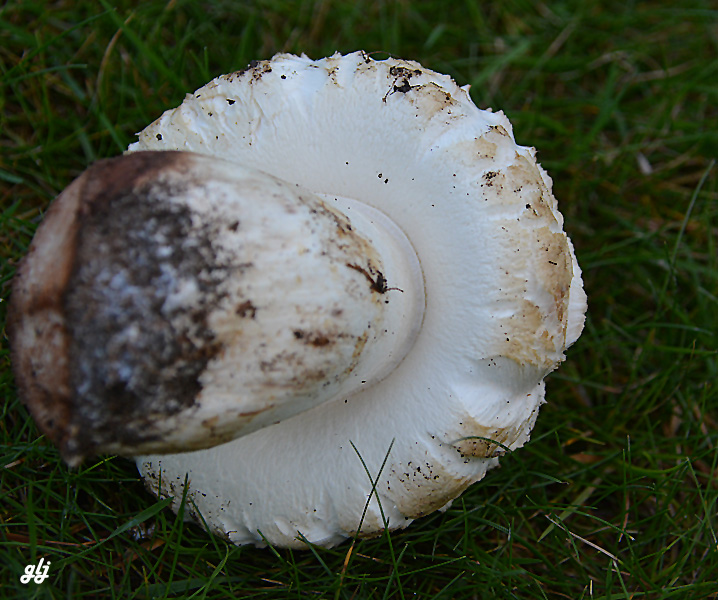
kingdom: Fungi
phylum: Basidiomycota
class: Agaricomycetes
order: Agaricales
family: Agaricaceae
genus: Agaricus
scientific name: Agaricus bernardii
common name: strandengs-champignon
